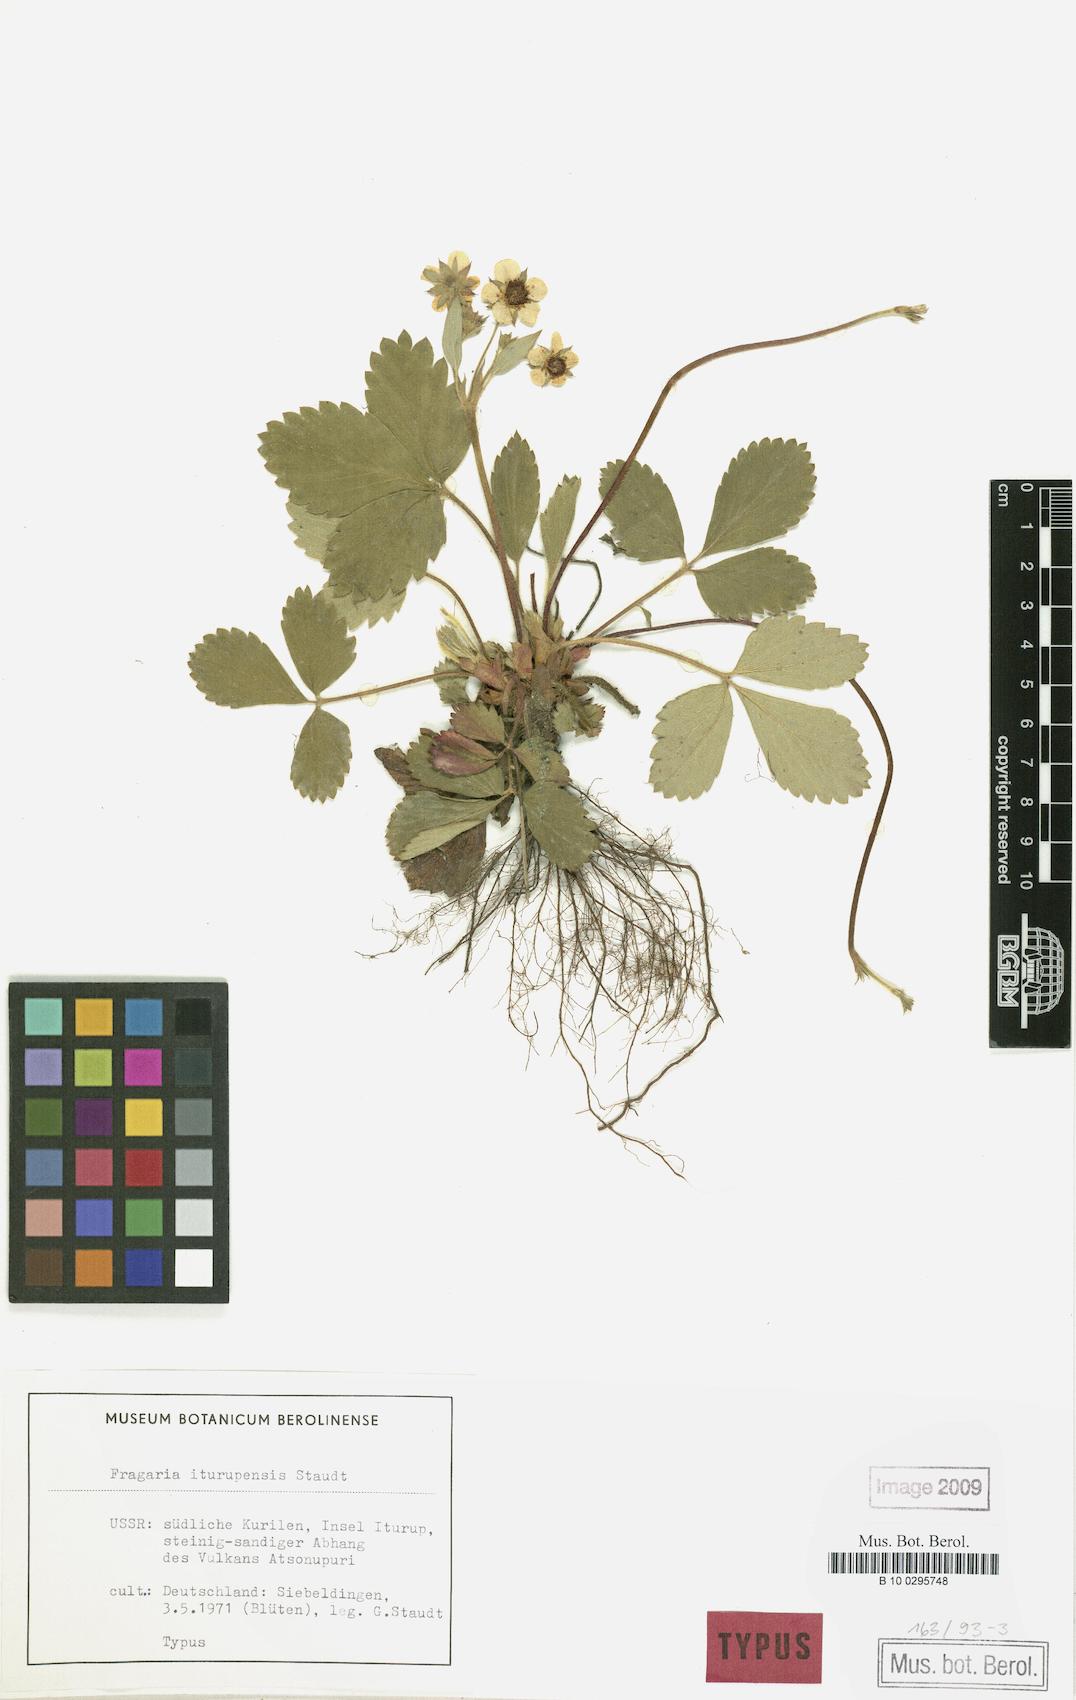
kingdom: Plantae
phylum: Tracheophyta
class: Magnoliopsida
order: Rosales
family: Rosaceae
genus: Fragaria
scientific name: Fragaria iturupensis
